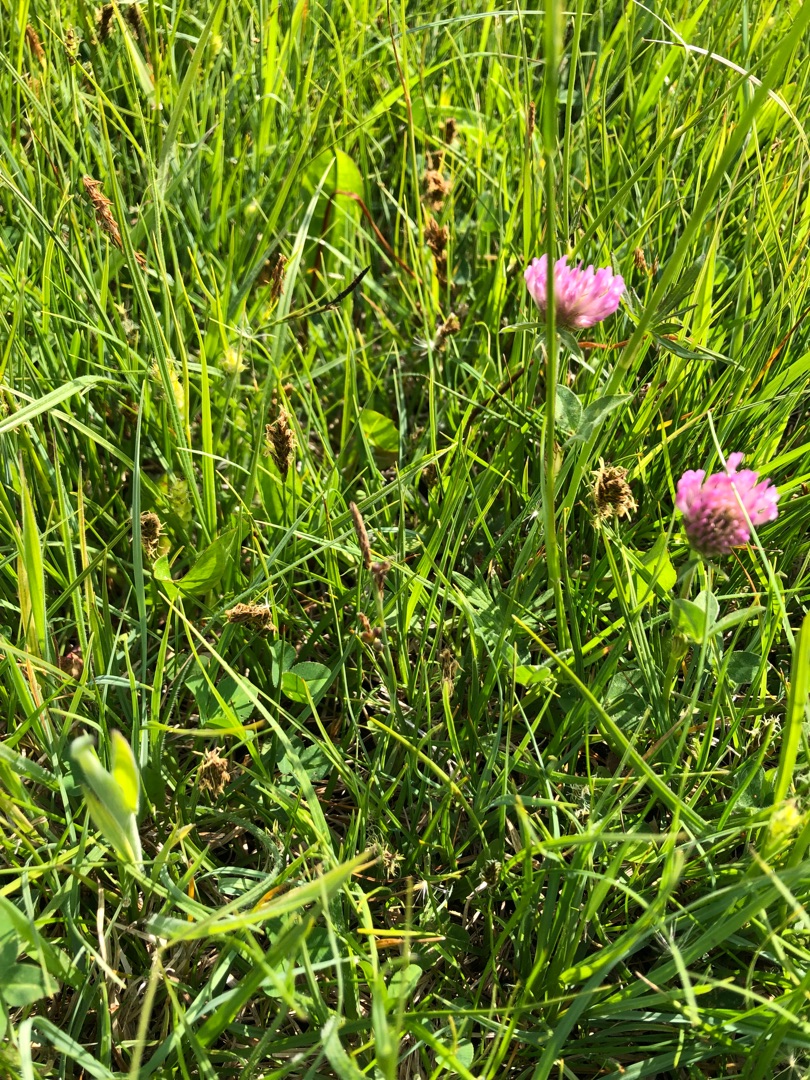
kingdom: Plantae
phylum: Tracheophyta
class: Liliopsida
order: Poales
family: Cyperaceae
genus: Blysmus
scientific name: Blysmus compressus
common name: Fladtrykt kogleaks
